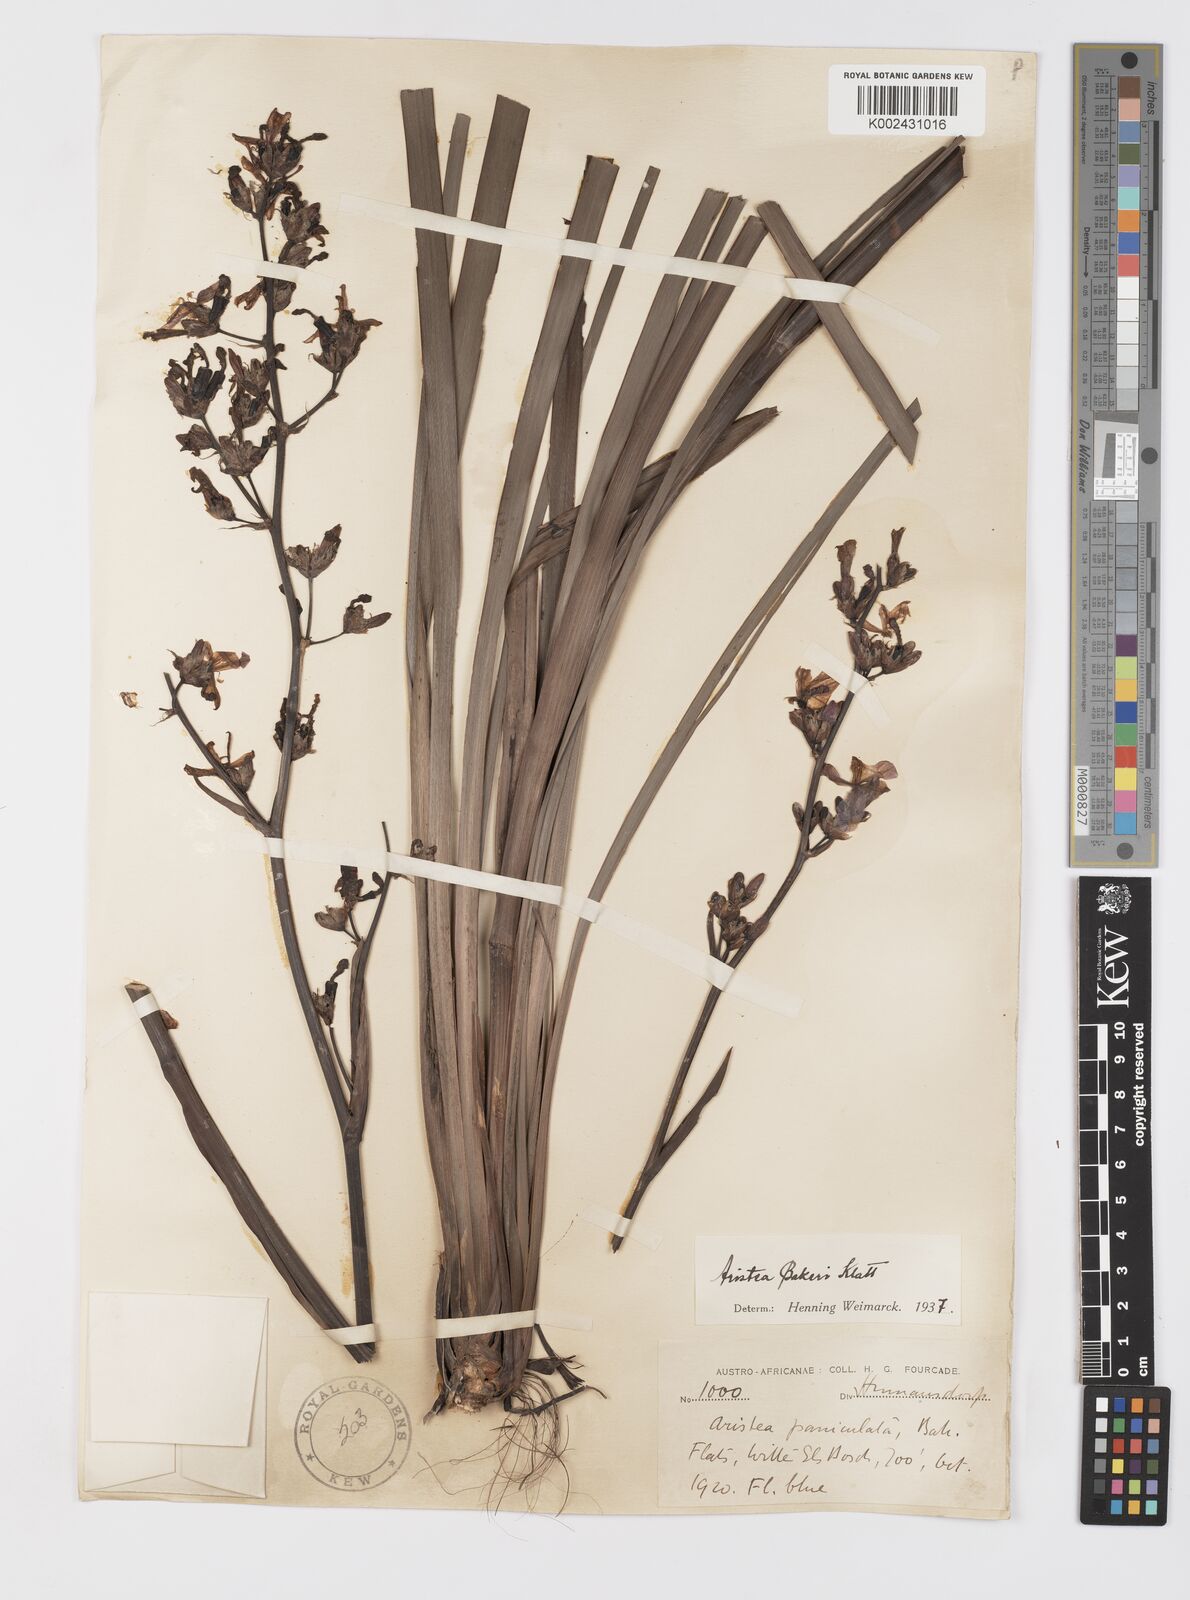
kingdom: Plantae
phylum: Tracheophyta
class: Liliopsida
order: Asparagales
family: Iridaceae
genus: Aristea
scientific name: Aristea bakeri
